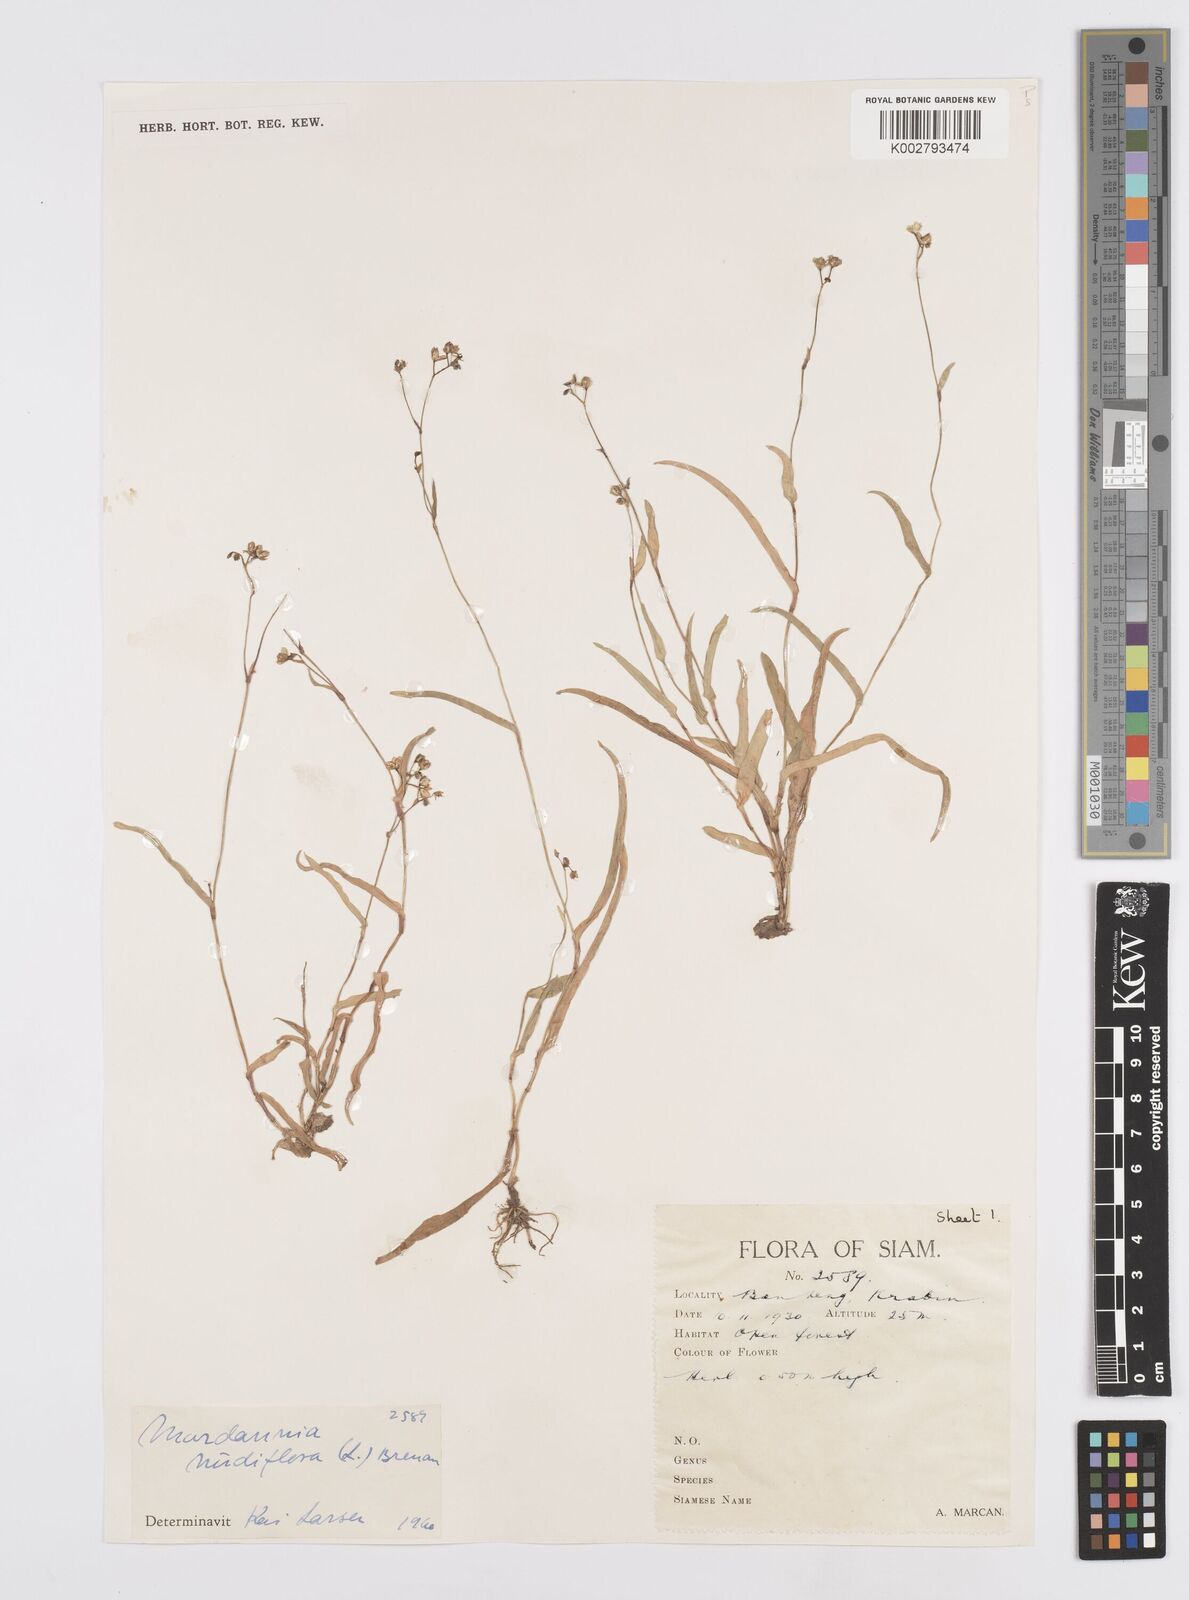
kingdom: Plantae
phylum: Tracheophyta
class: Liliopsida
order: Commelinales
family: Commelinaceae
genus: Murdannia
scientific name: Murdannia nudiflora
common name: Nakedstem dewflower
